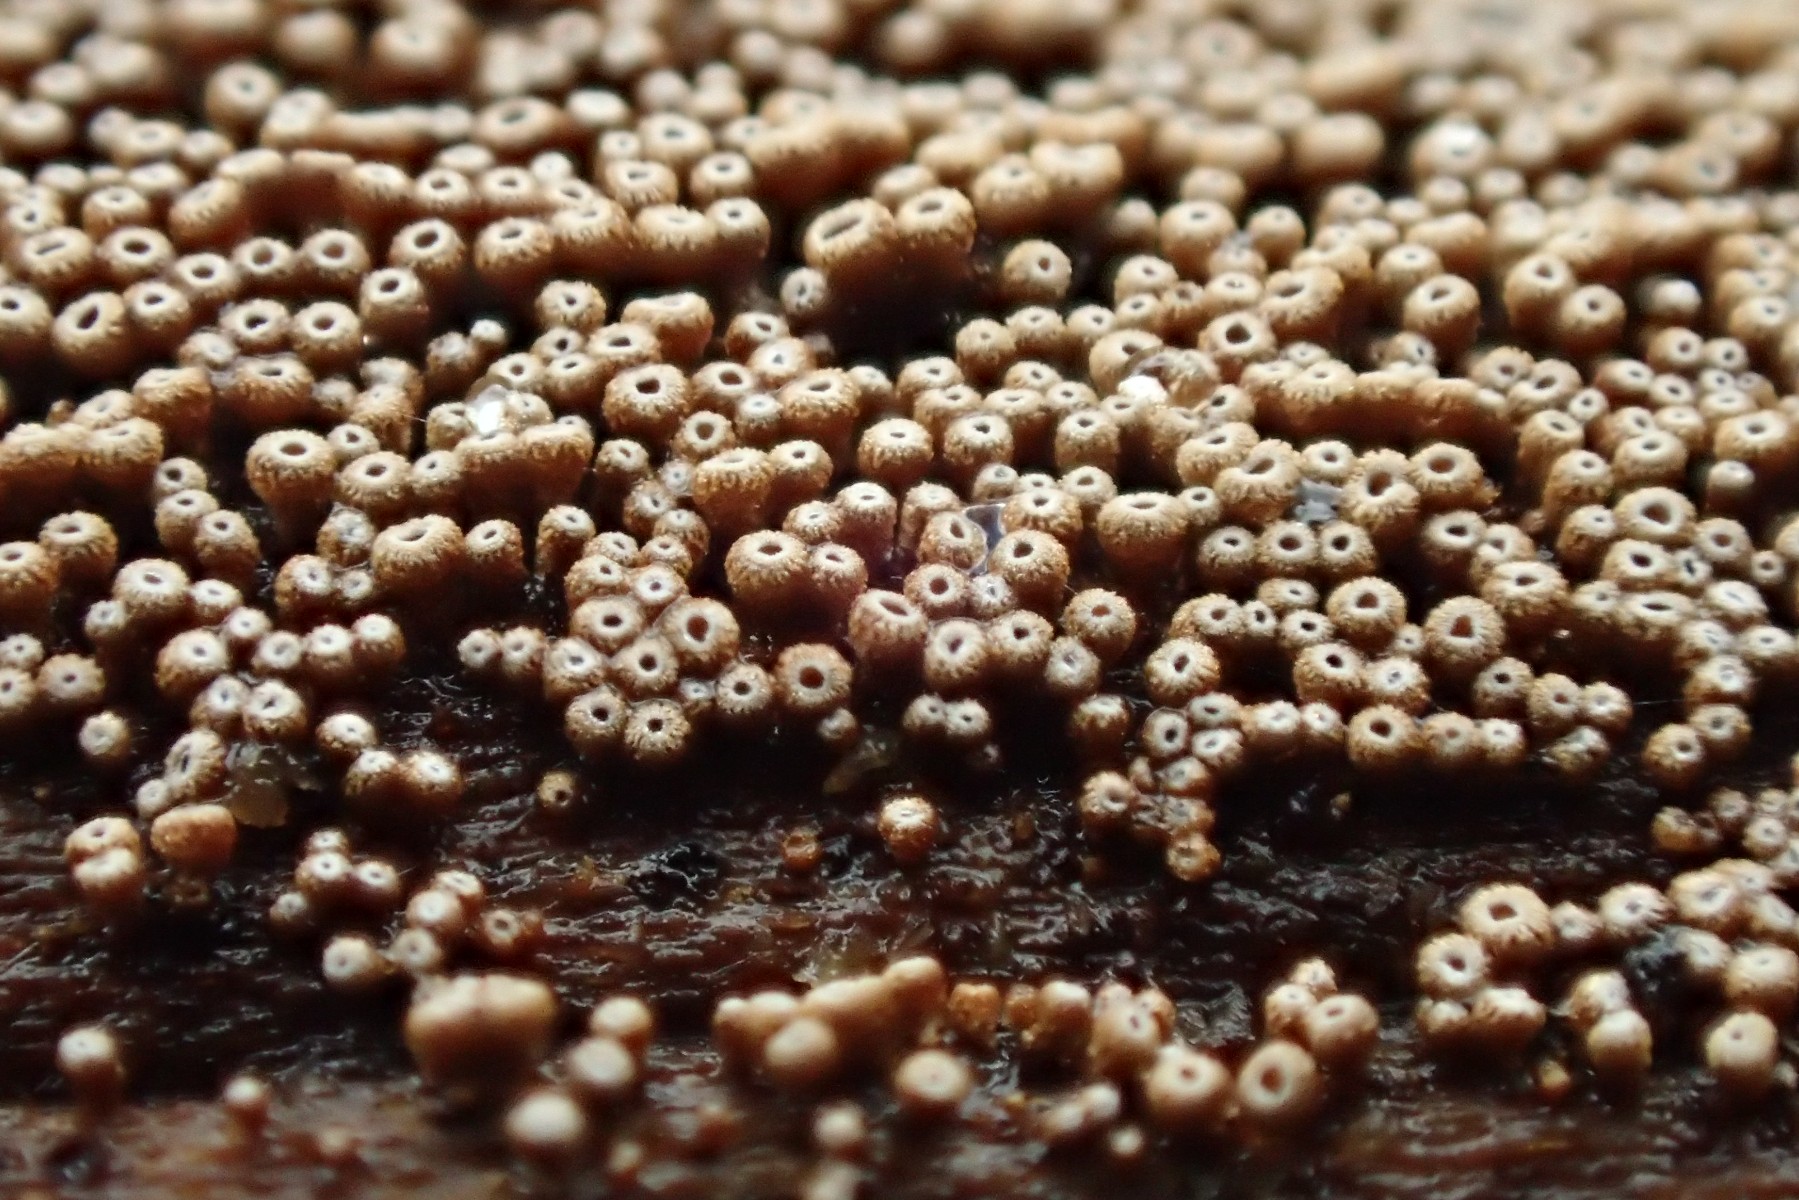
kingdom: Fungi
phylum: Basidiomycota
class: Agaricomycetes
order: Agaricales
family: Niaceae
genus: Merismodes
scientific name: Merismodes anomala
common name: almindelig læderskål
